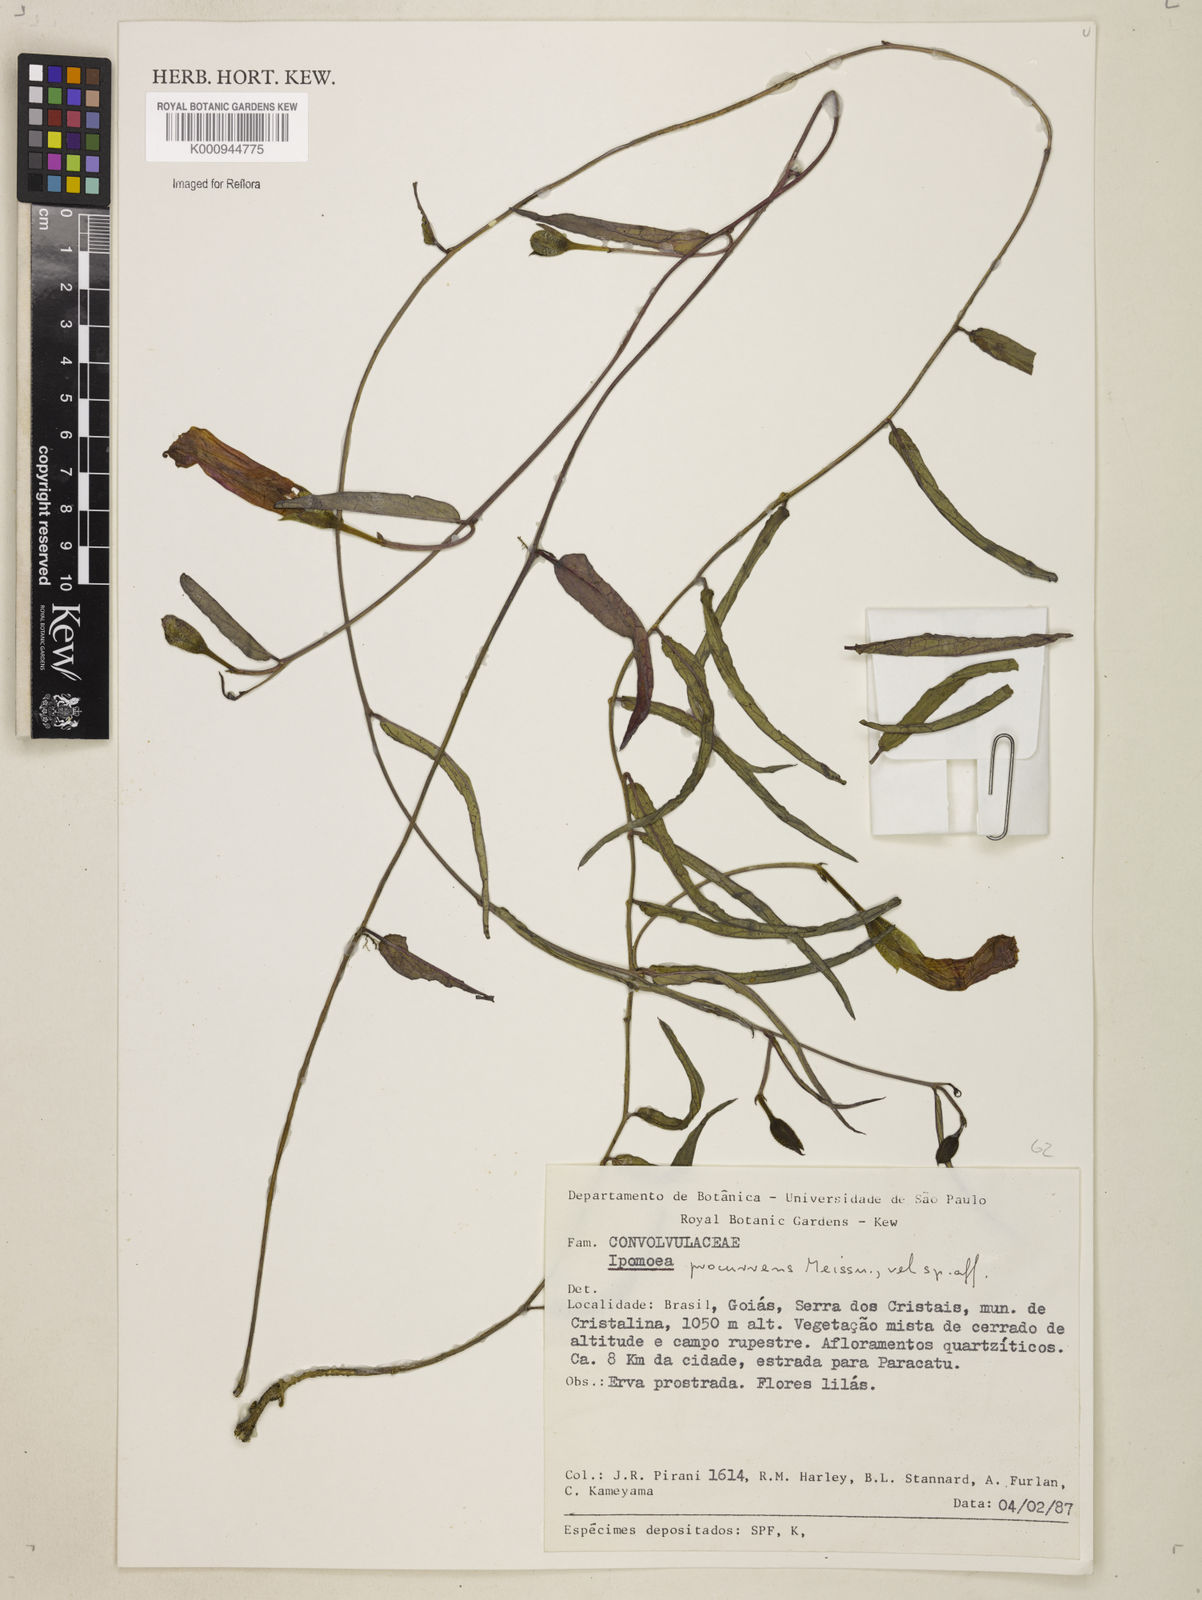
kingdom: Plantae
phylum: Tracheophyta
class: Magnoliopsida
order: Solanales
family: Convolvulaceae
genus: Ipomoea
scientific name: Ipomoea procurrens
